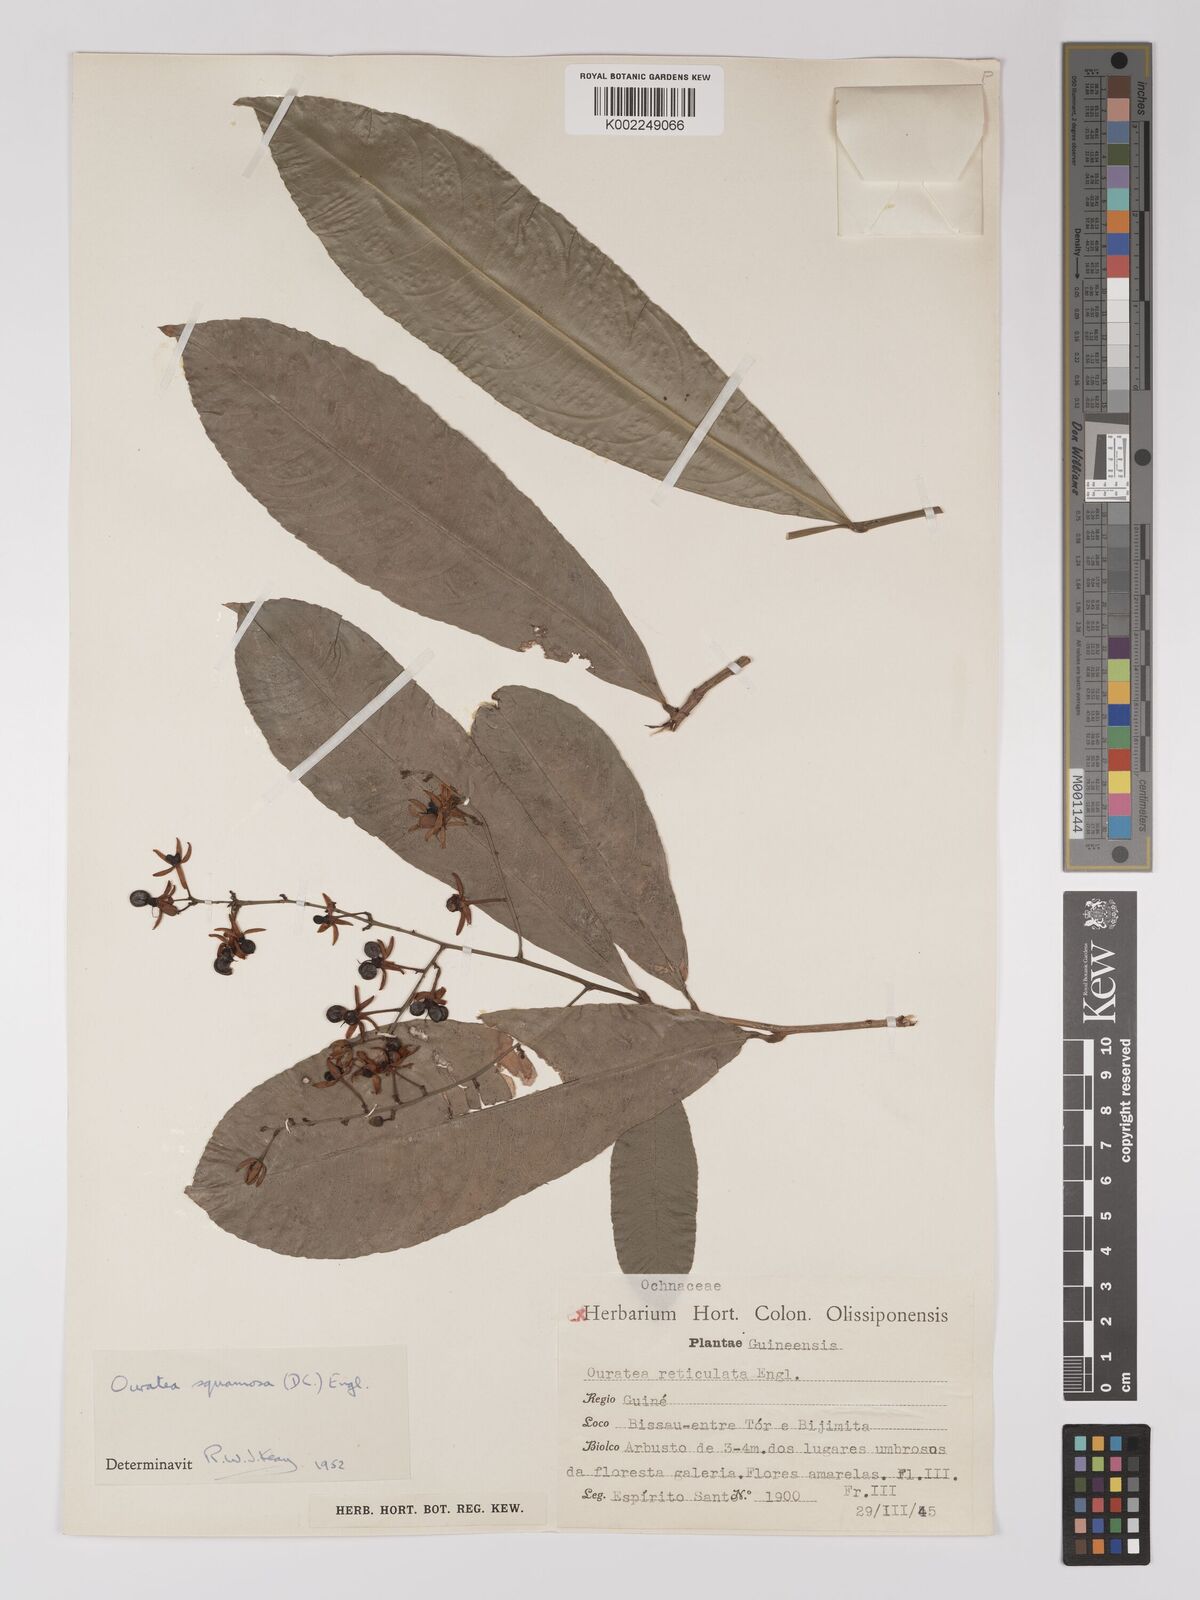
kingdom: Plantae
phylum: Tracheophyta
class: Magnoliopsida
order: Malpighiales
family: Ochnaceae
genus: Campylospermum
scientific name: Campylospermum squamosum
